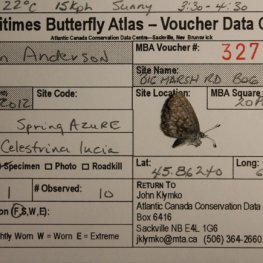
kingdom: Animalia
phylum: Arthropoda
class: Insecta
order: Lepidoptera
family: Lycaenidae
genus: Celastrina
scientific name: Celastrina lucia
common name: Northern Spring Azure
